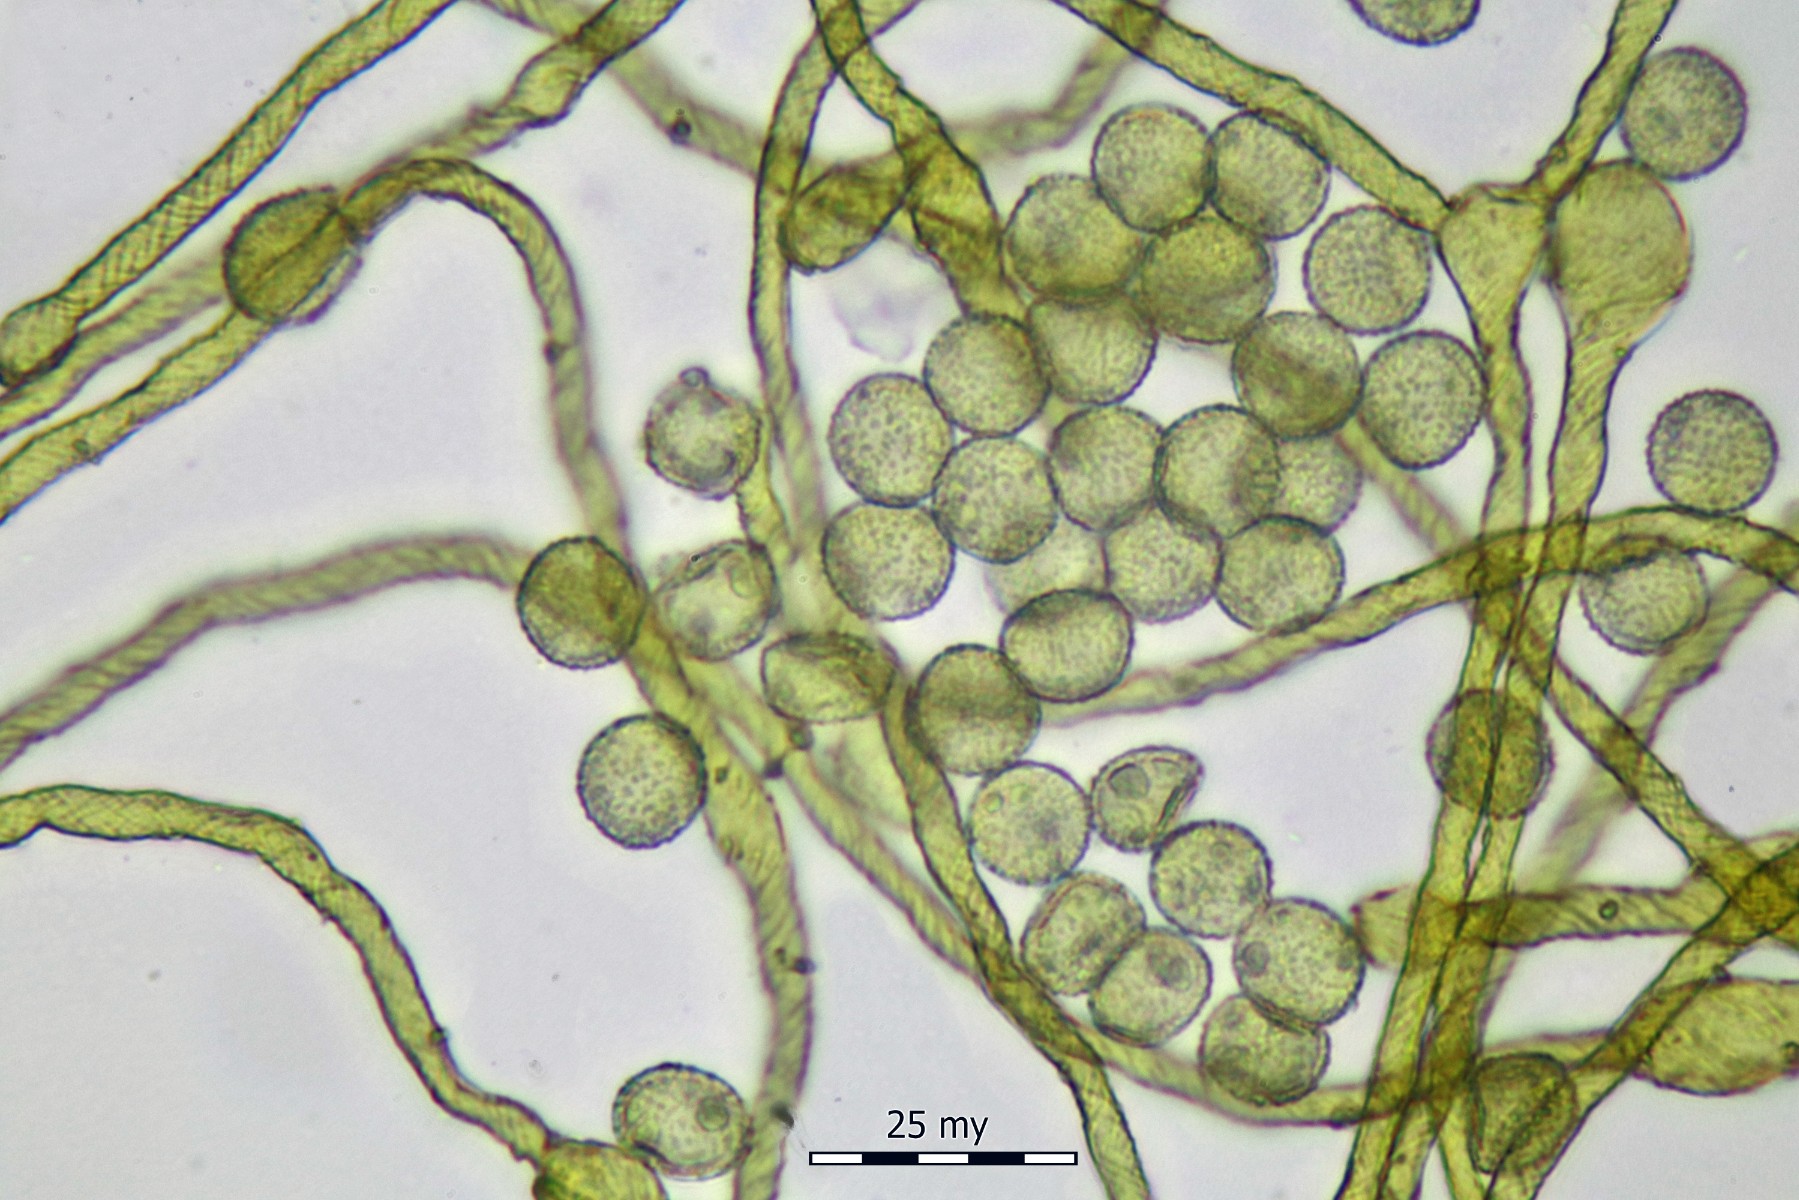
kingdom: Protozoa
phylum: Mycetozoa
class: Myxomycetes
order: Trichiales
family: Arcyriaceae
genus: Hemitrichia
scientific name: Hemitrichia lutescens
